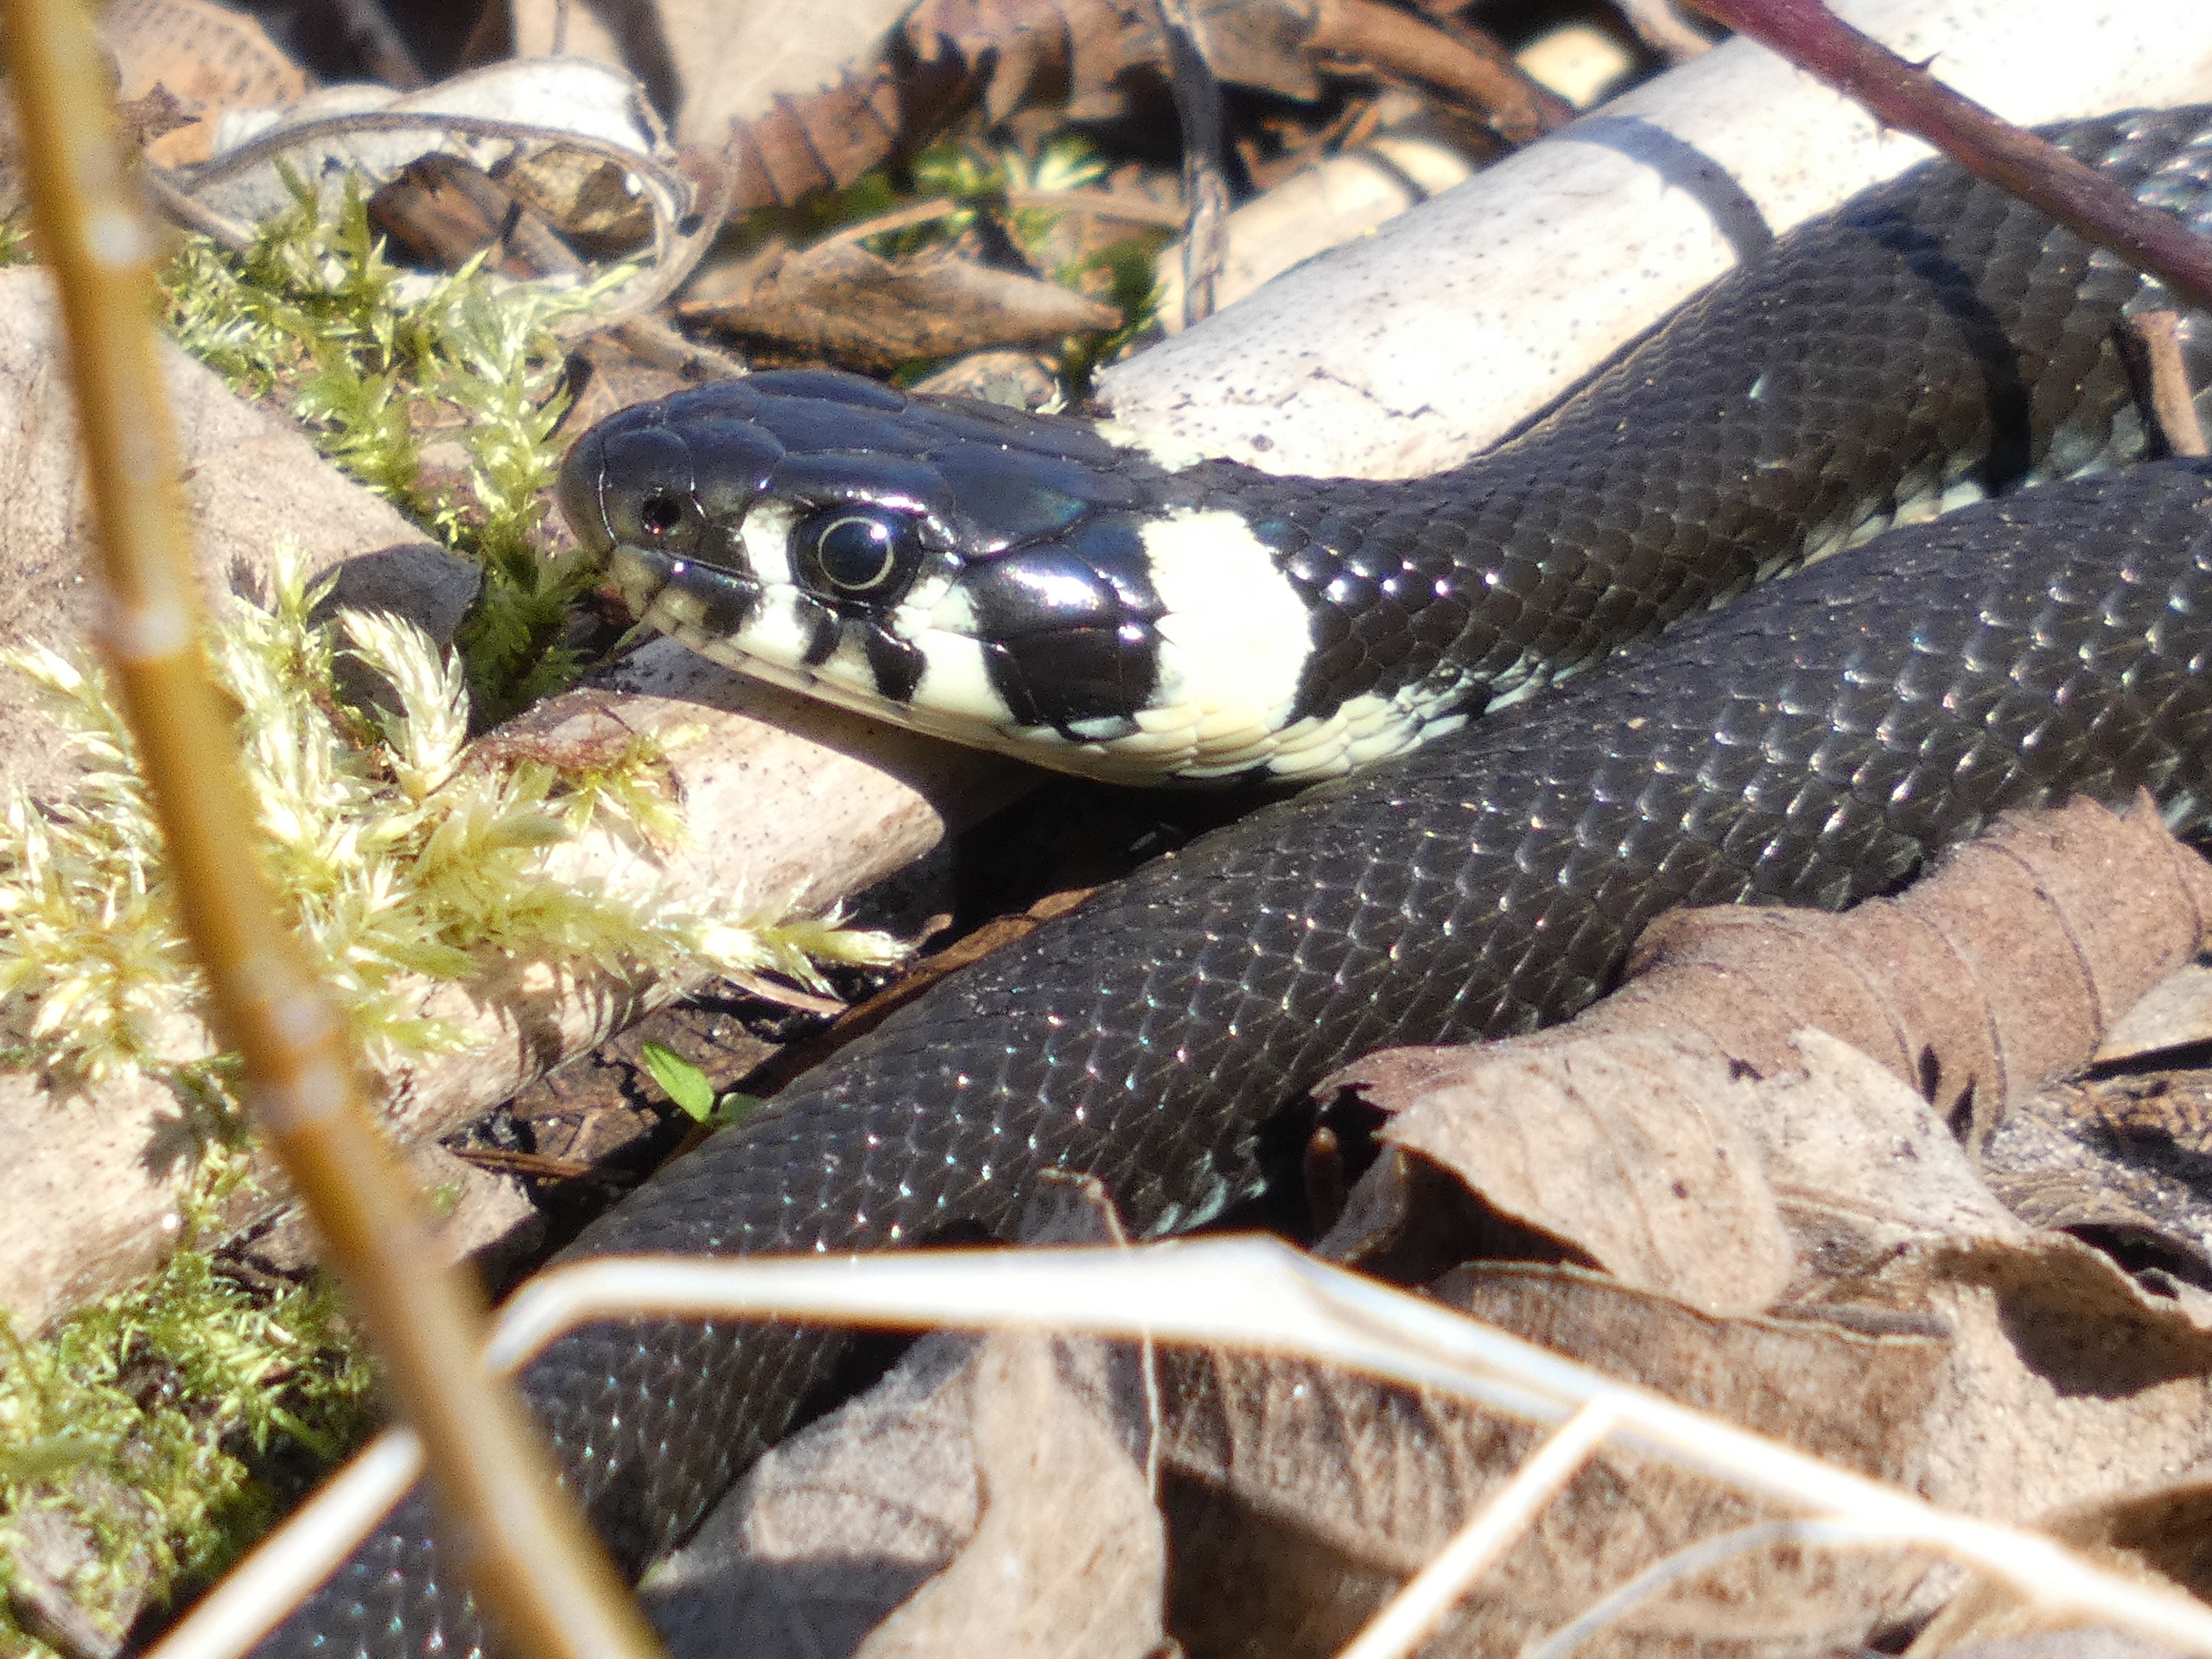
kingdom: Animalia
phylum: Chordata
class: Squamata
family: Colubridae
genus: Natrix
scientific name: Natrix natrix
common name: Snog
